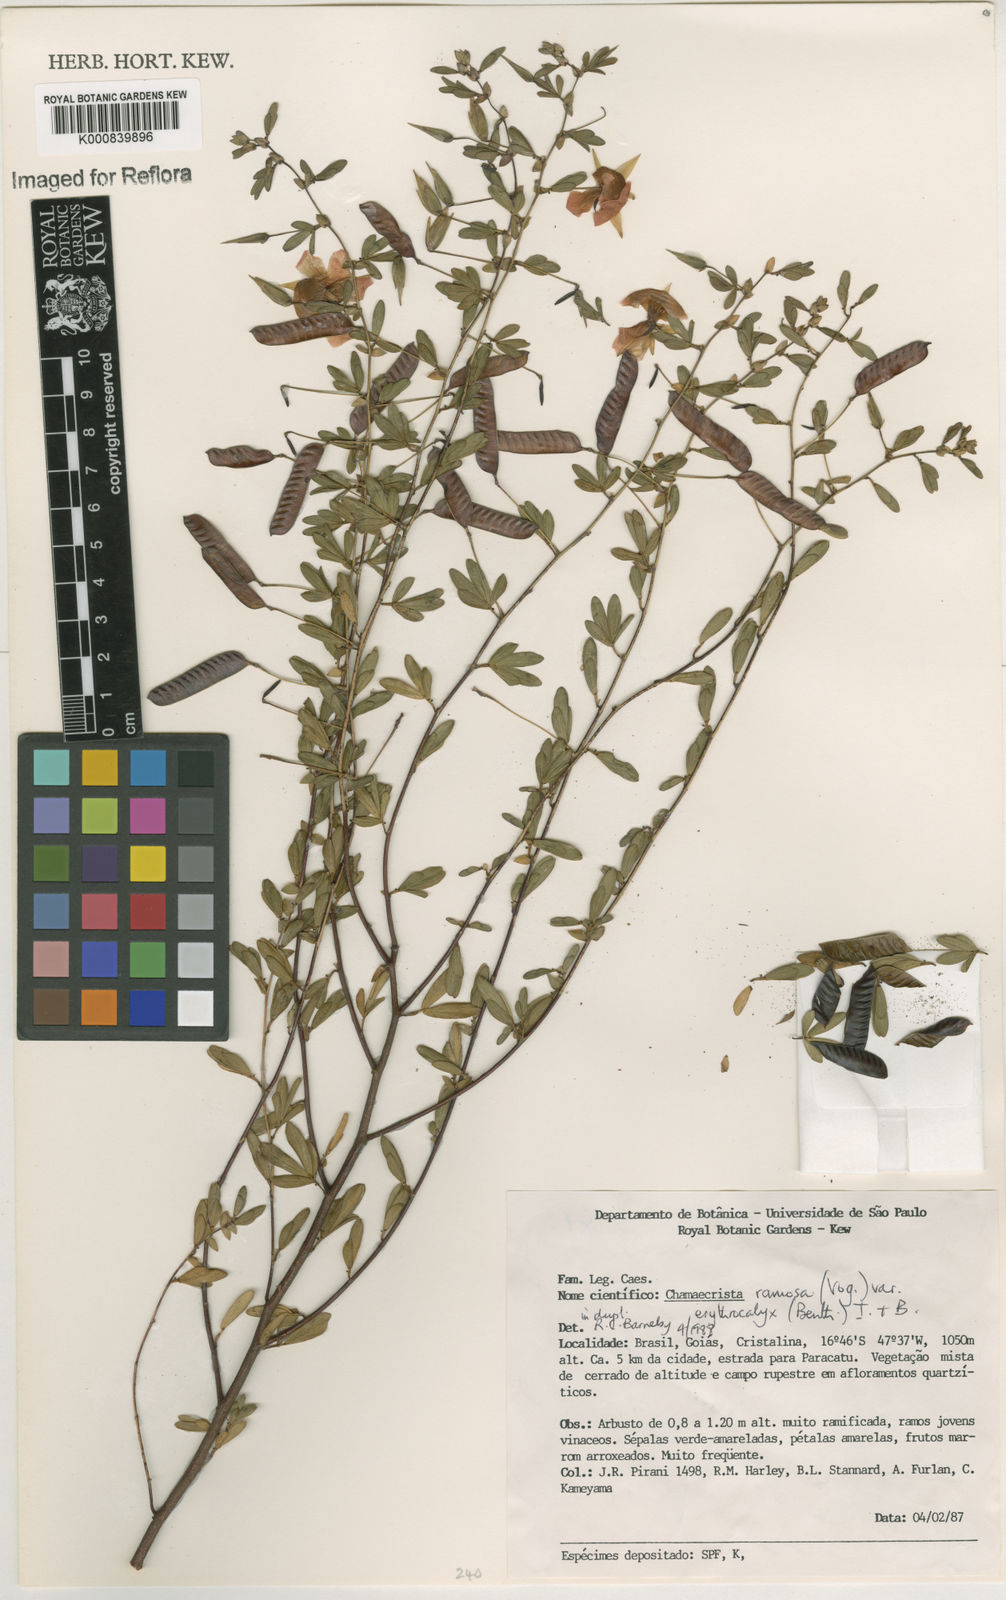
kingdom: Plantae
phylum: Tracheophyta
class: Magnoliopsida
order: Fabales
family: Fabaceae
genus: Chamaecrista
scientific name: Chamaecrista ramosa
